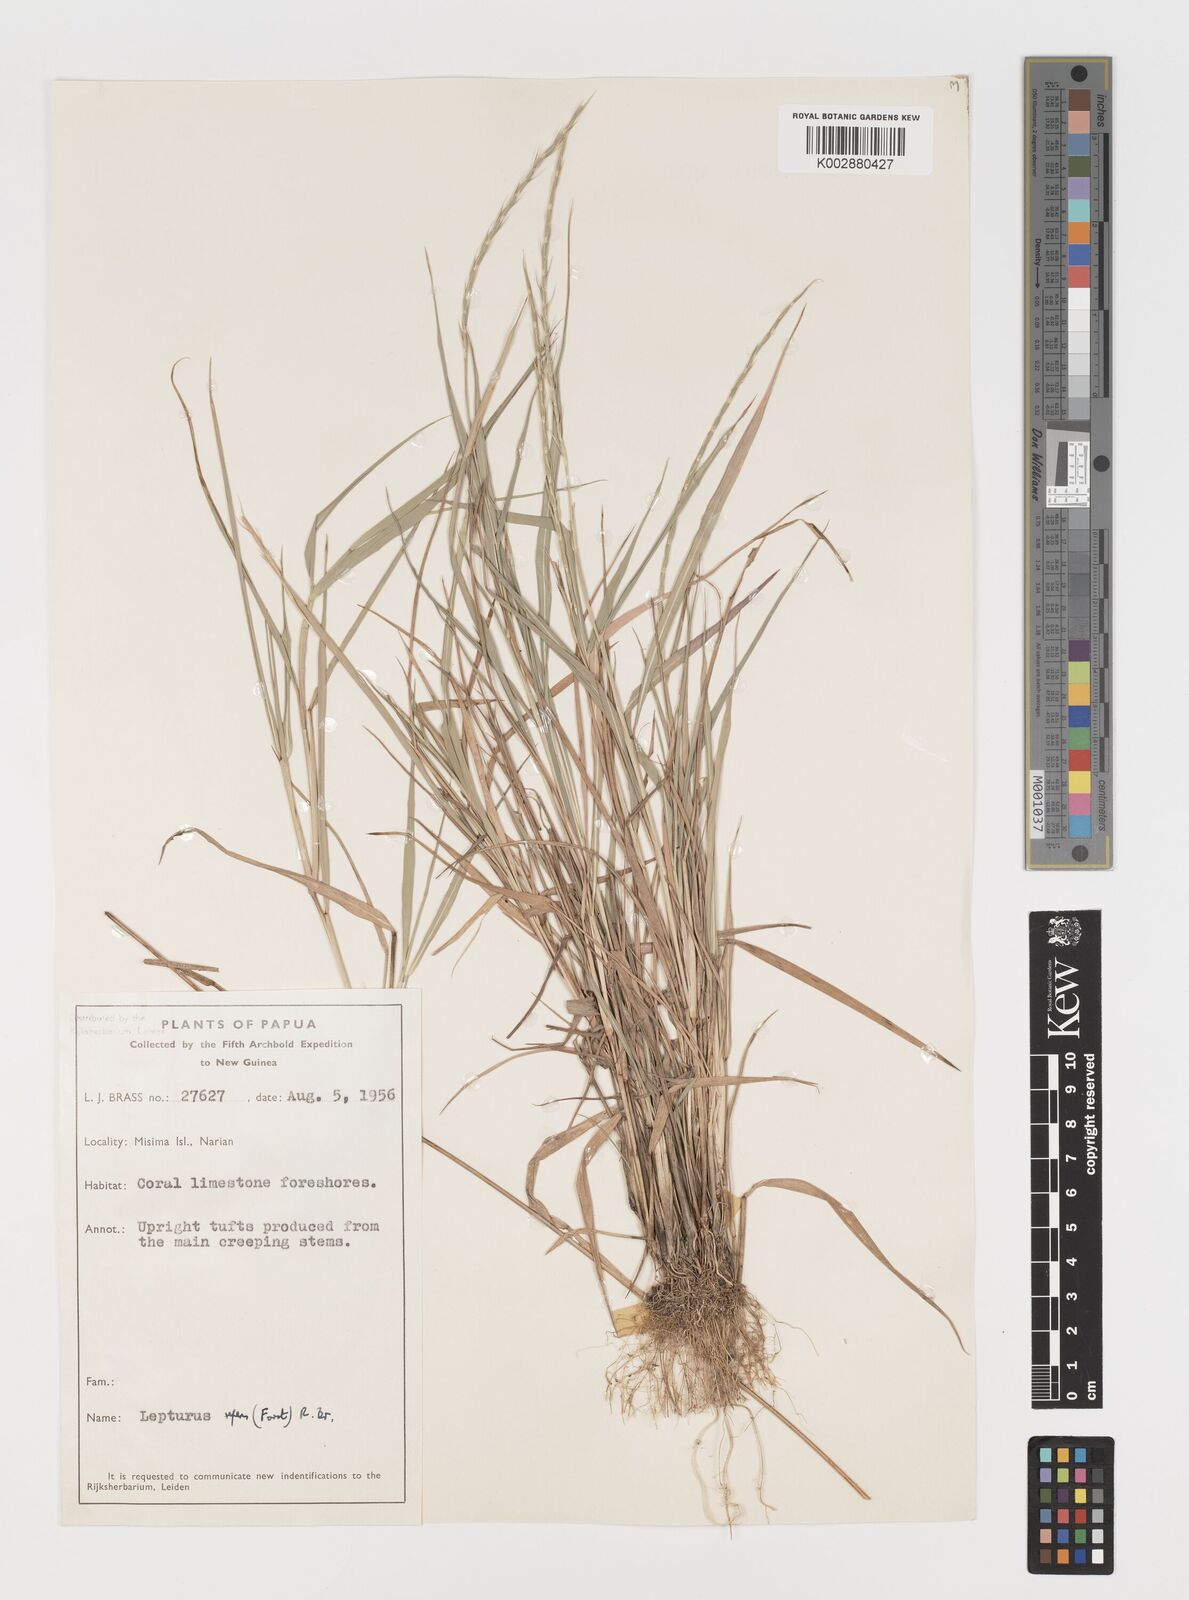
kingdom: Plantae
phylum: Tracheophyta
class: Liliopsida
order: Poales
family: Poaceae
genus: Lepturus
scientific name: Lepturus repens
